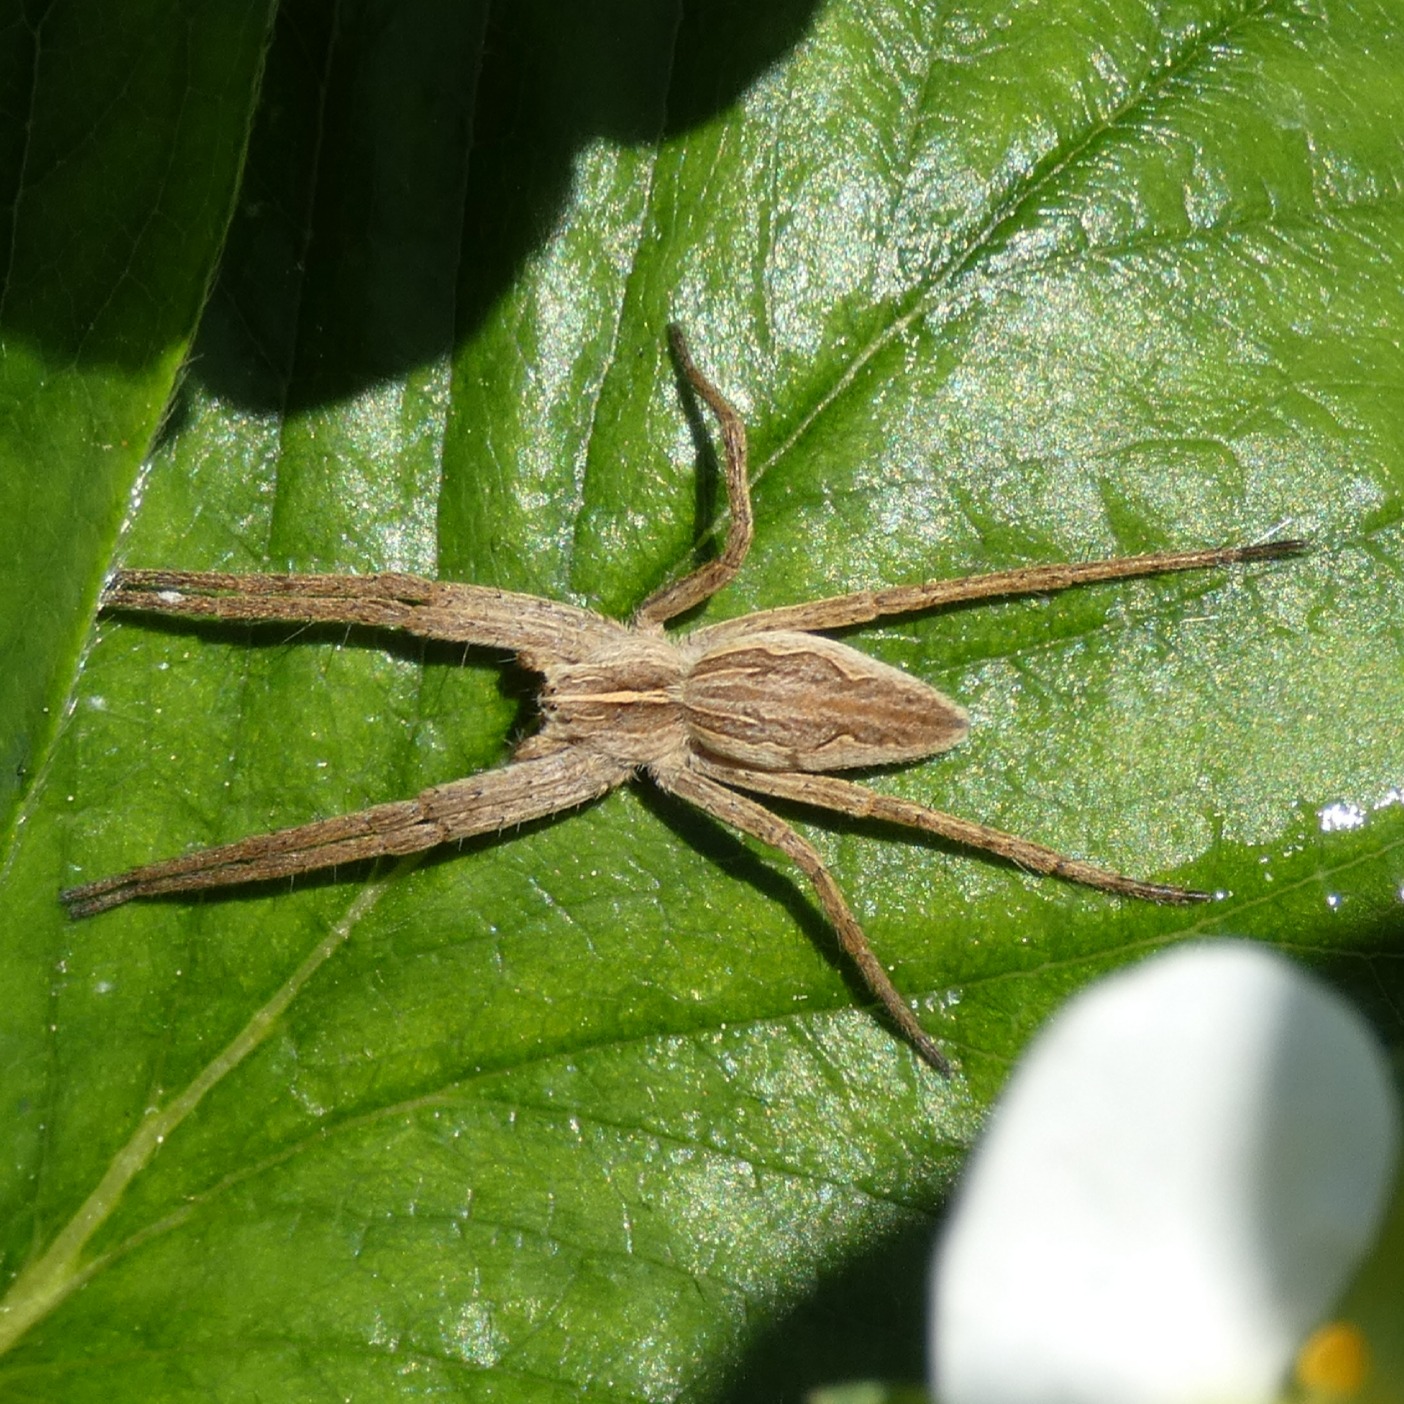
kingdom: Animalia
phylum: Arthropoda
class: Arachnida
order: Araneae
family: Pisauridae
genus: Pisaura
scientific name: Pisaura mirabilis
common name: Almindelig rovedderkop
